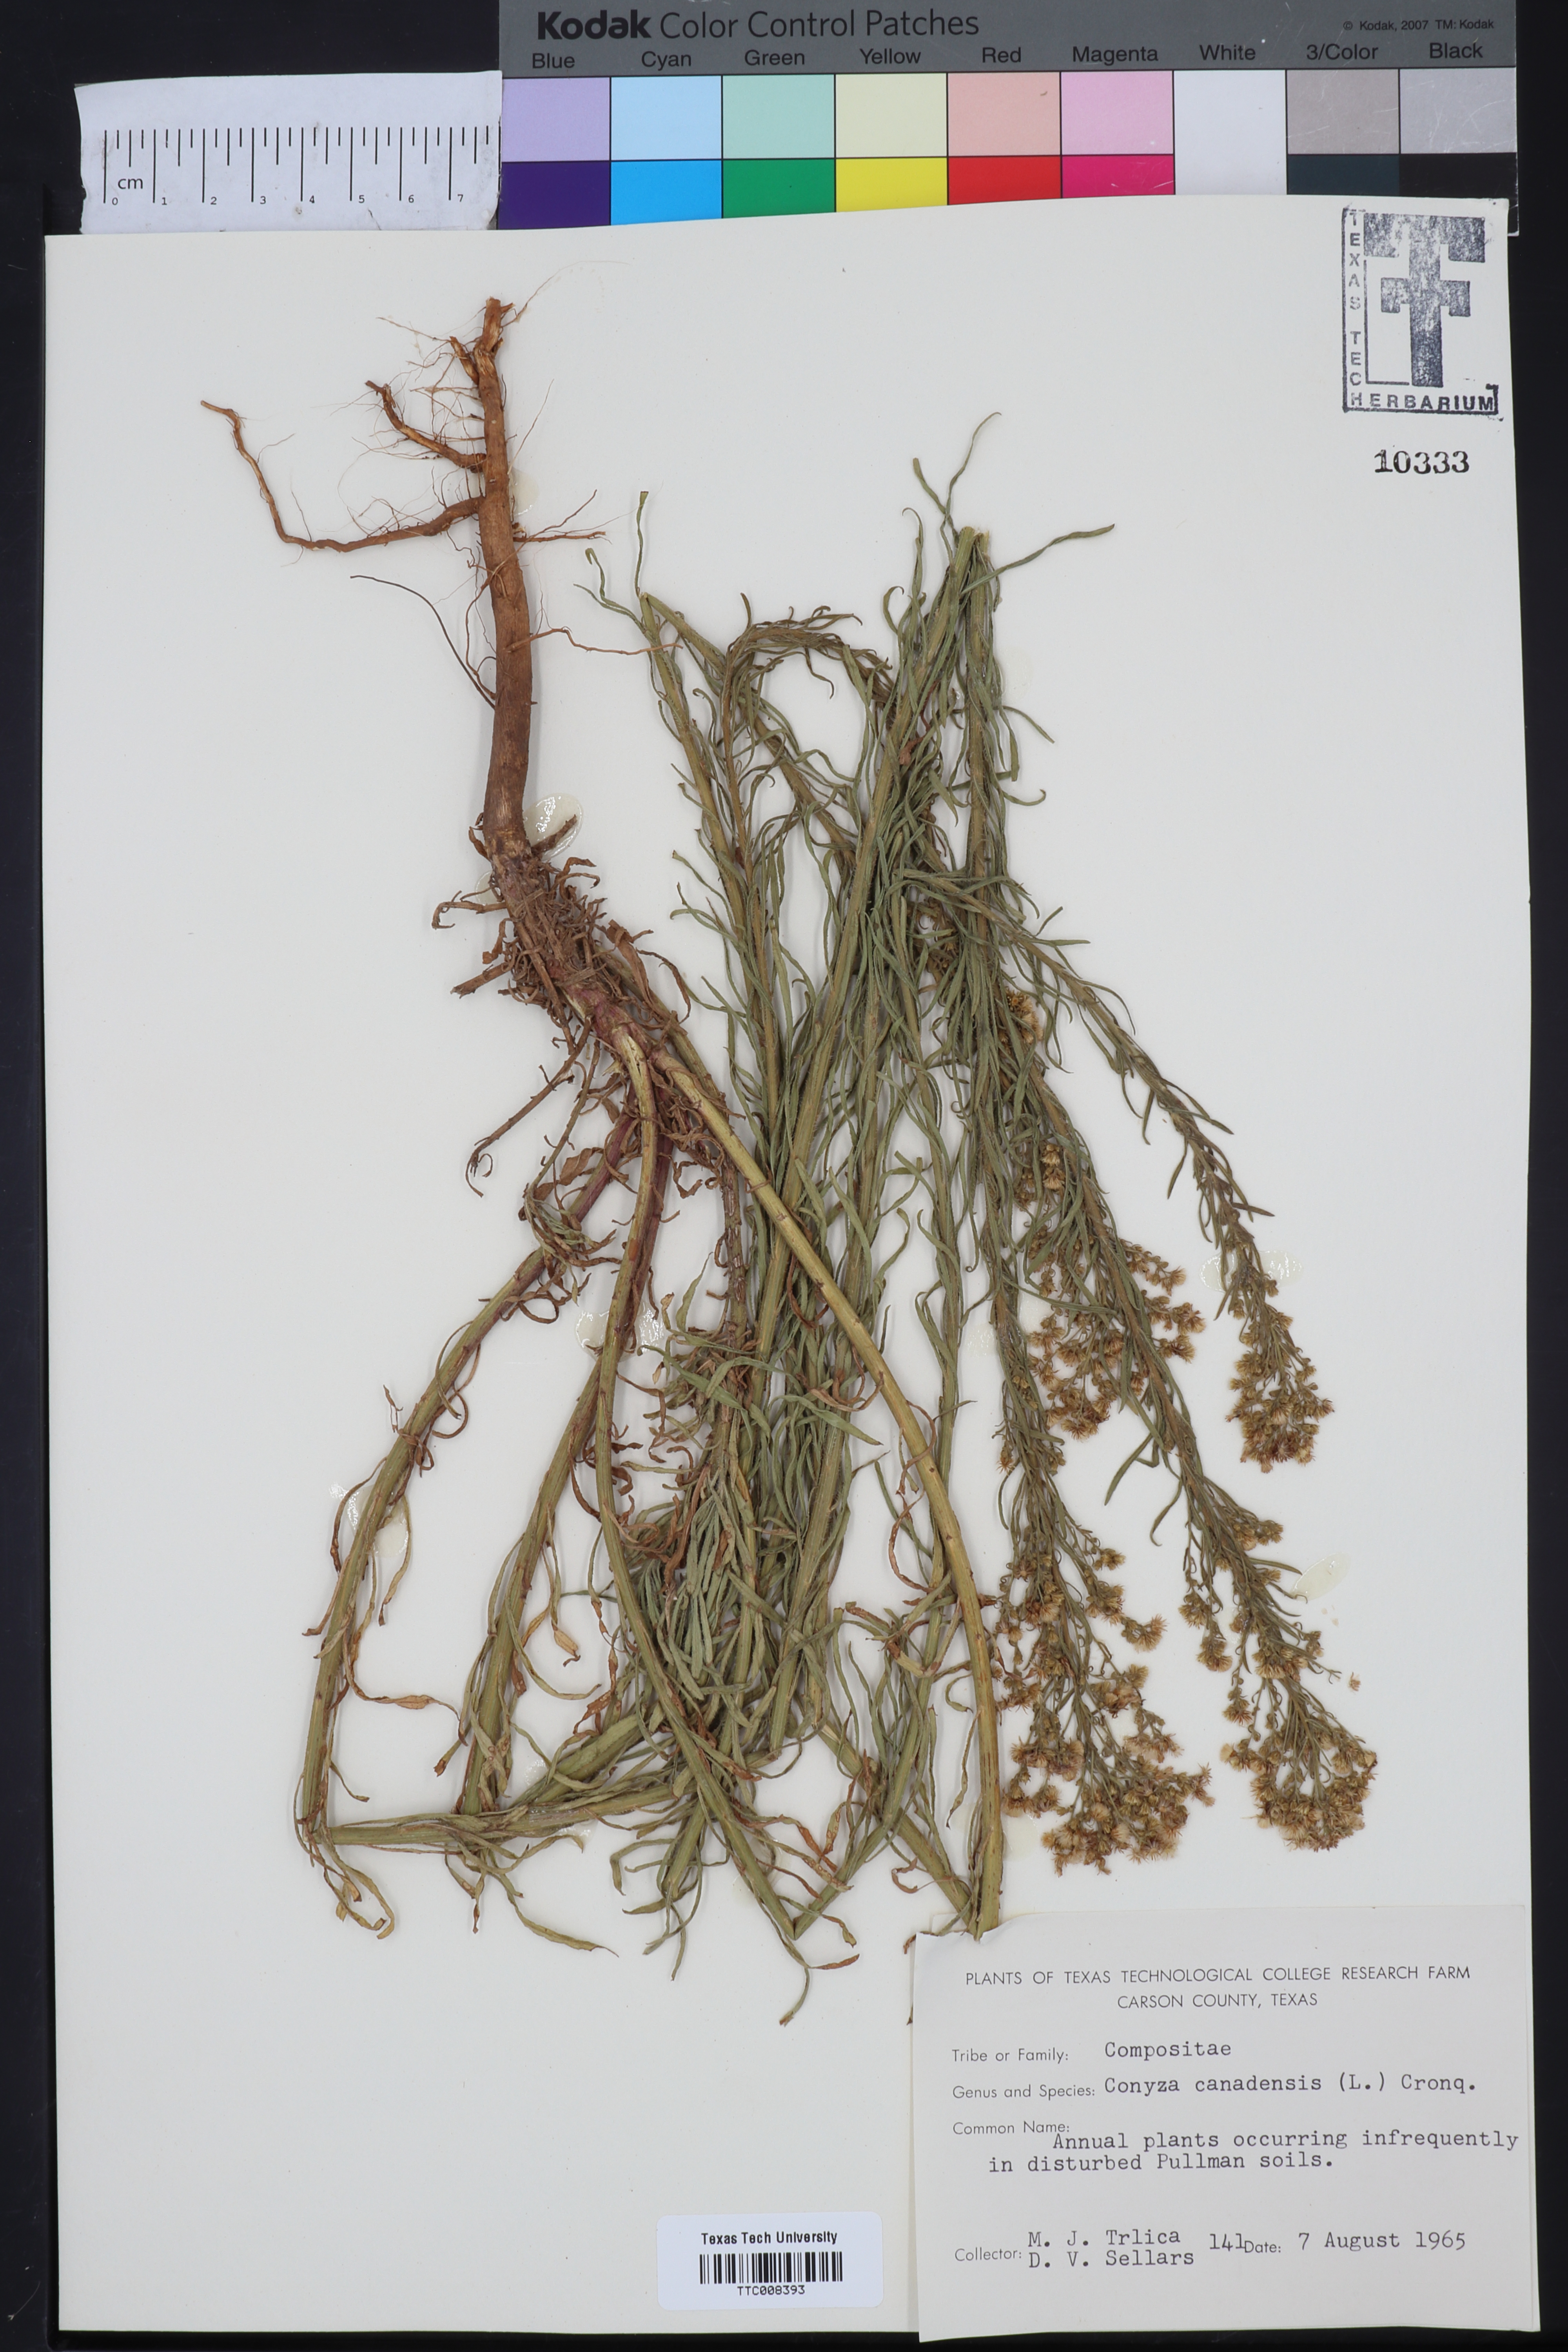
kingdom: Plantae
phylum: Tracheophyta
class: Magnoliopsida
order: Asterales
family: Asteraceae
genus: Erigeron
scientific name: Erigeron canadensis
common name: Canadian fleabane
